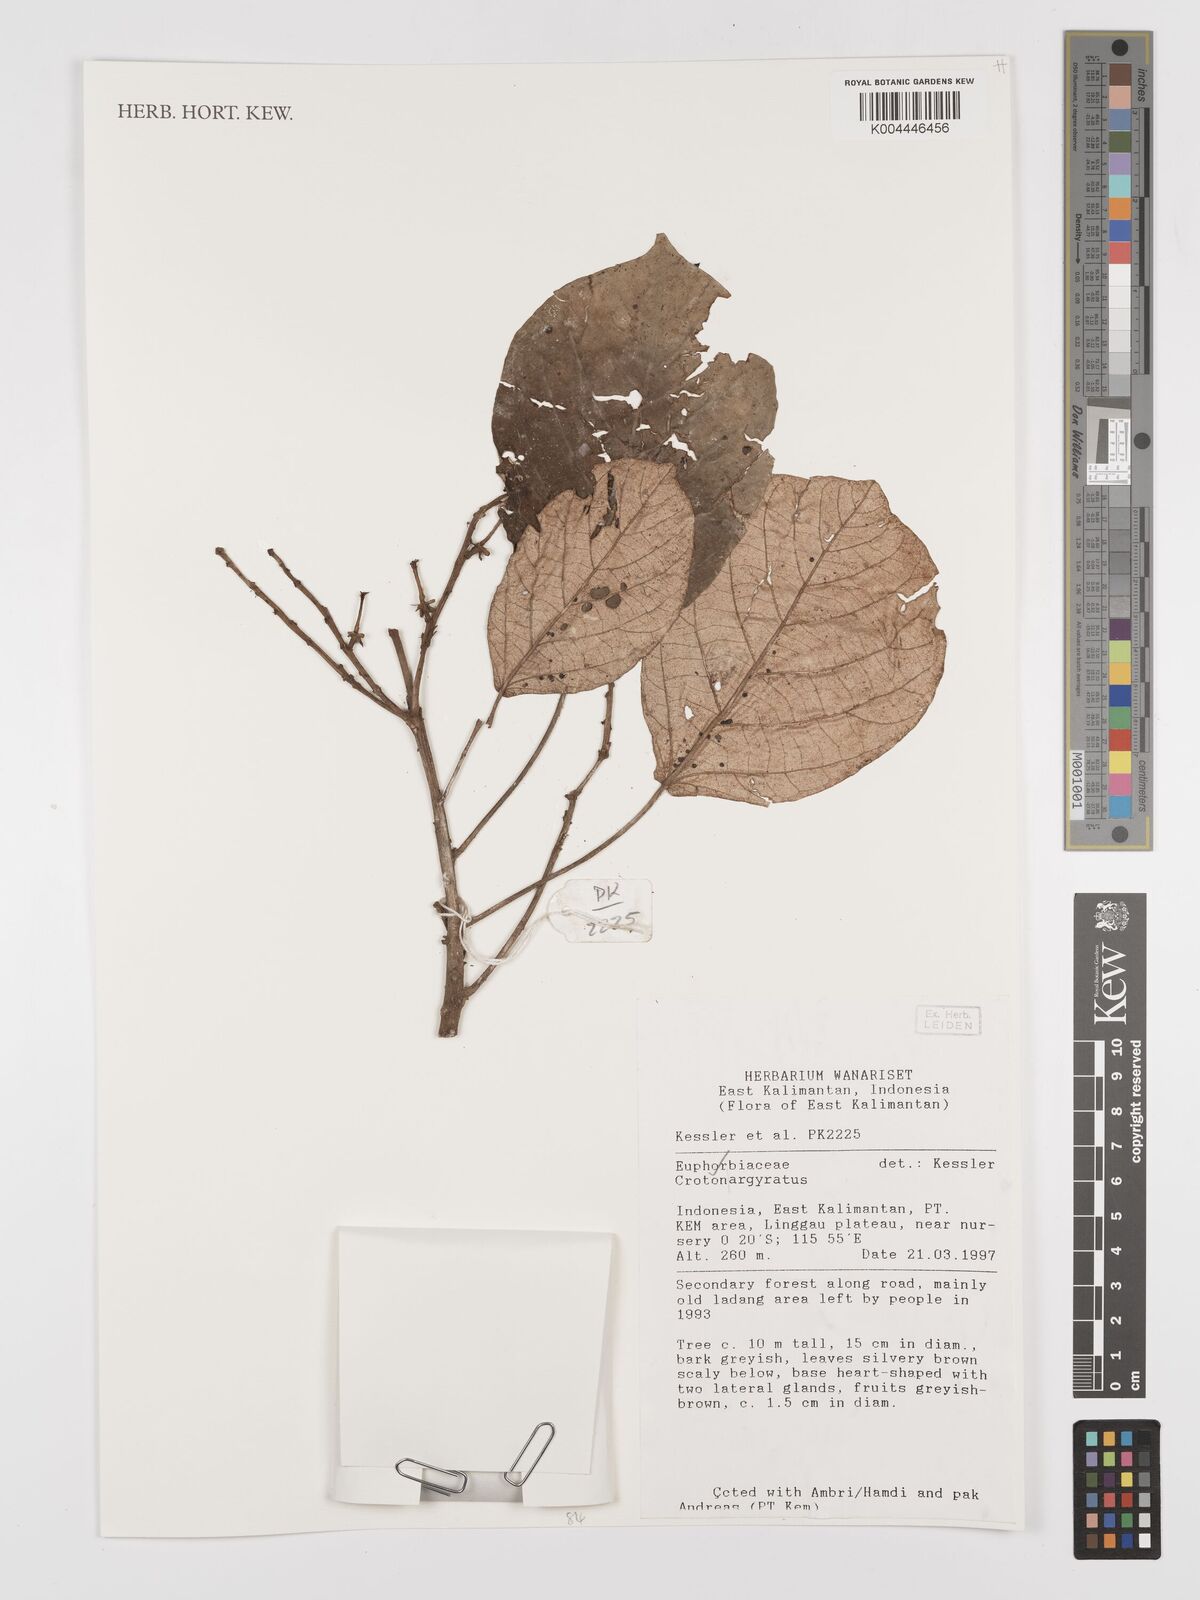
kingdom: Plantae
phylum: Tracheophyta
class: Magnoliopsida
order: Malpighiales
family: Euphorbiaceae
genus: Croton
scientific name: Croton argyratus
